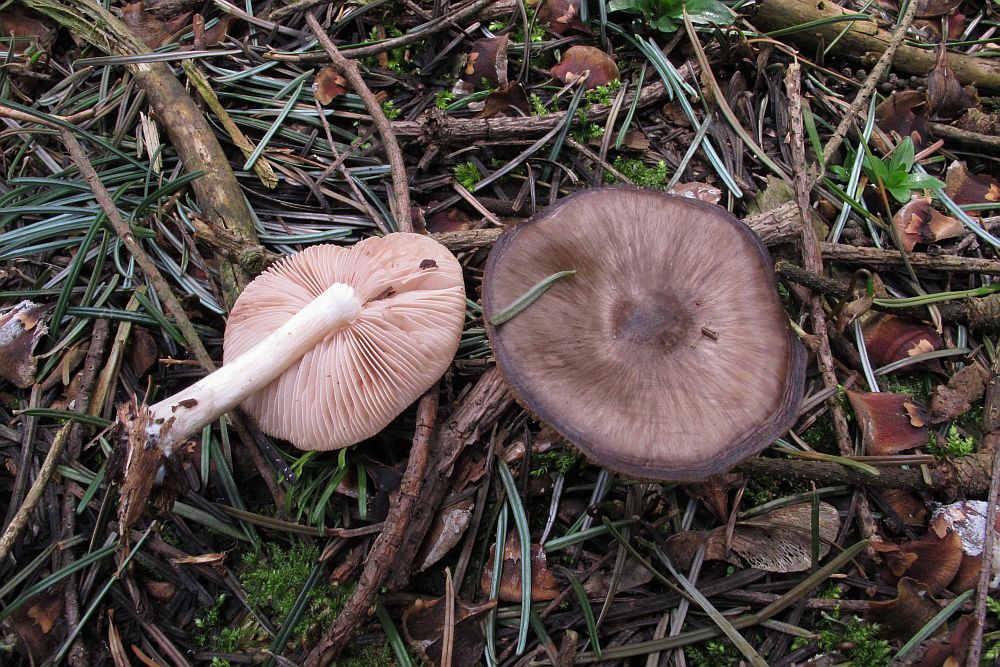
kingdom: Fungi
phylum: Basidiomycota
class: Agaricomycetes
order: Agaricales
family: Pluteaceae
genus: Pluteus
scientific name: Pluteus primus
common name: tidlig skærmhat
